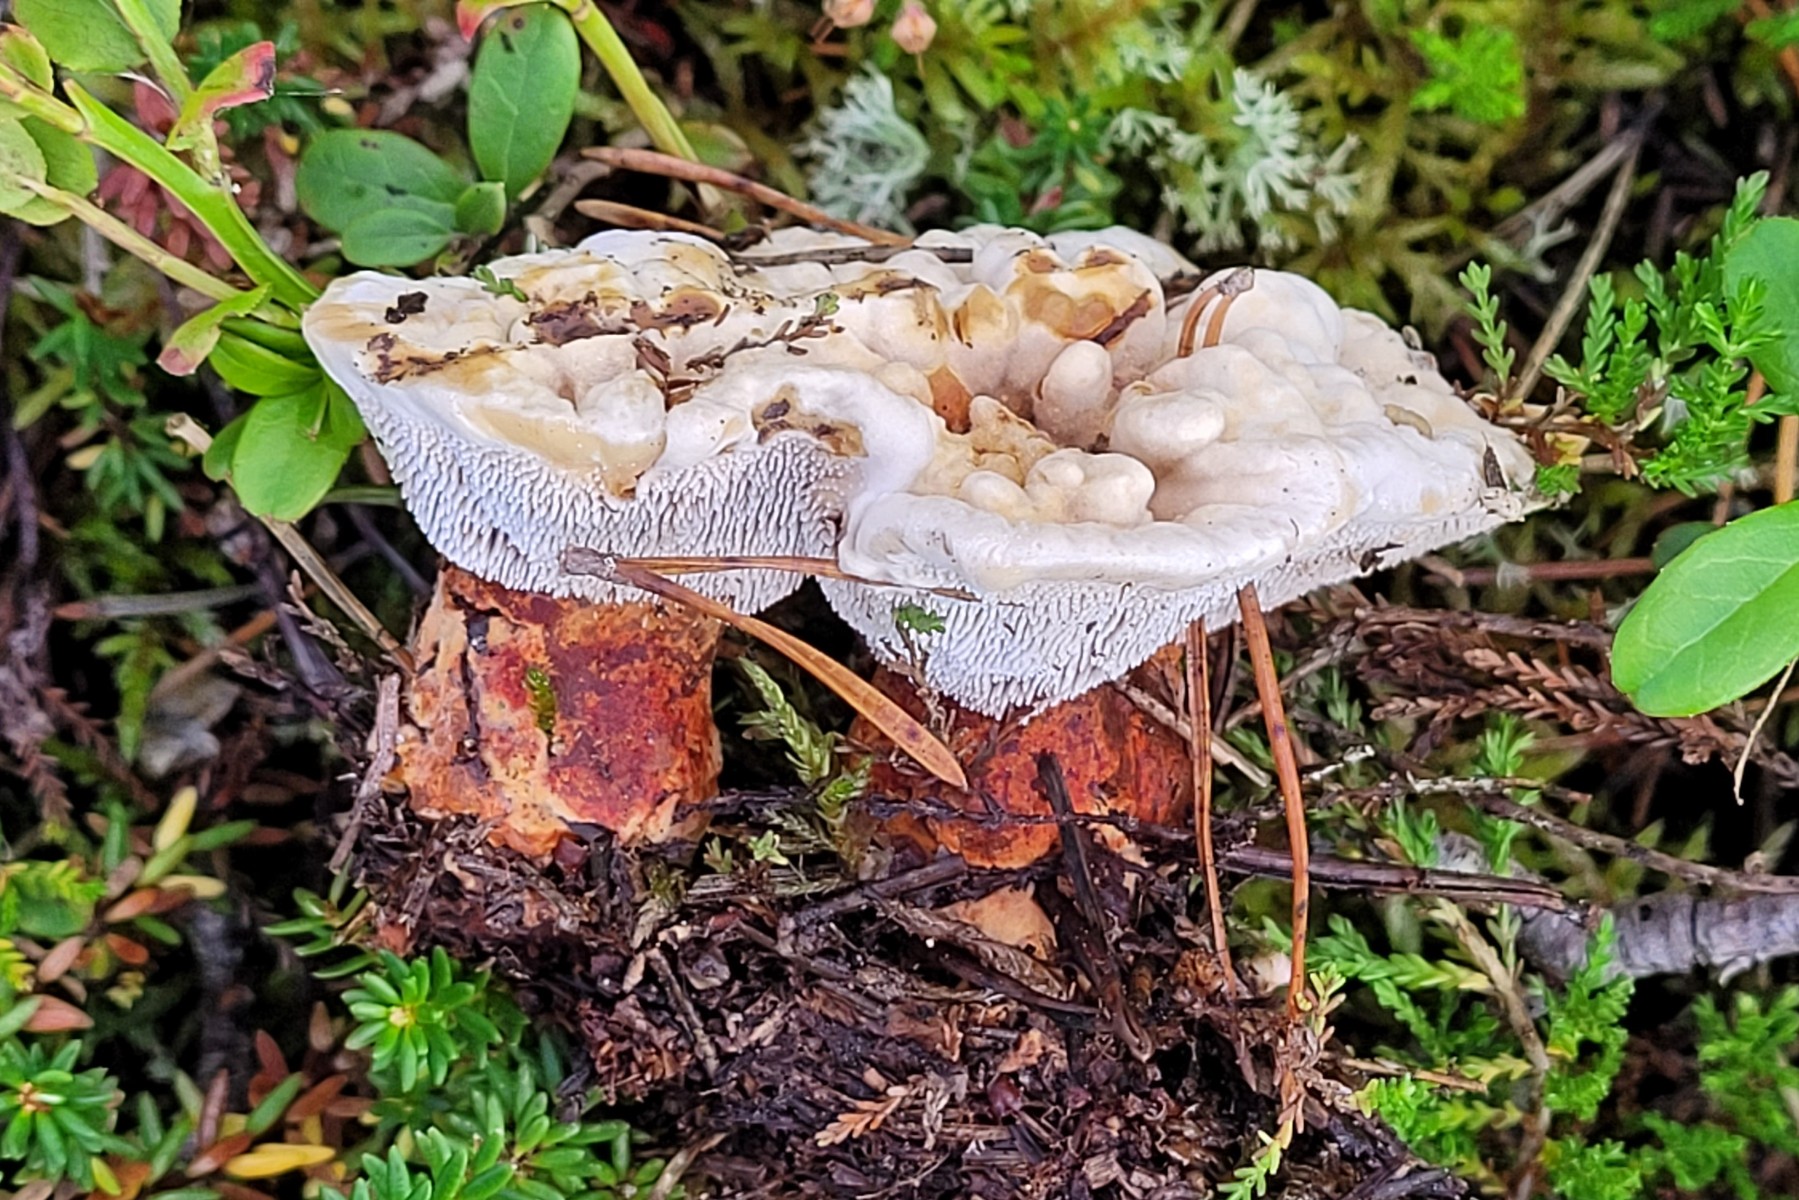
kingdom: Fungi
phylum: Basidiomycota
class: Agaricomycetes
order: Thelephorales
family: Bankeraceae
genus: Hydnellum
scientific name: Hydnellum aurantiacum
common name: orange korkpigsvamp
